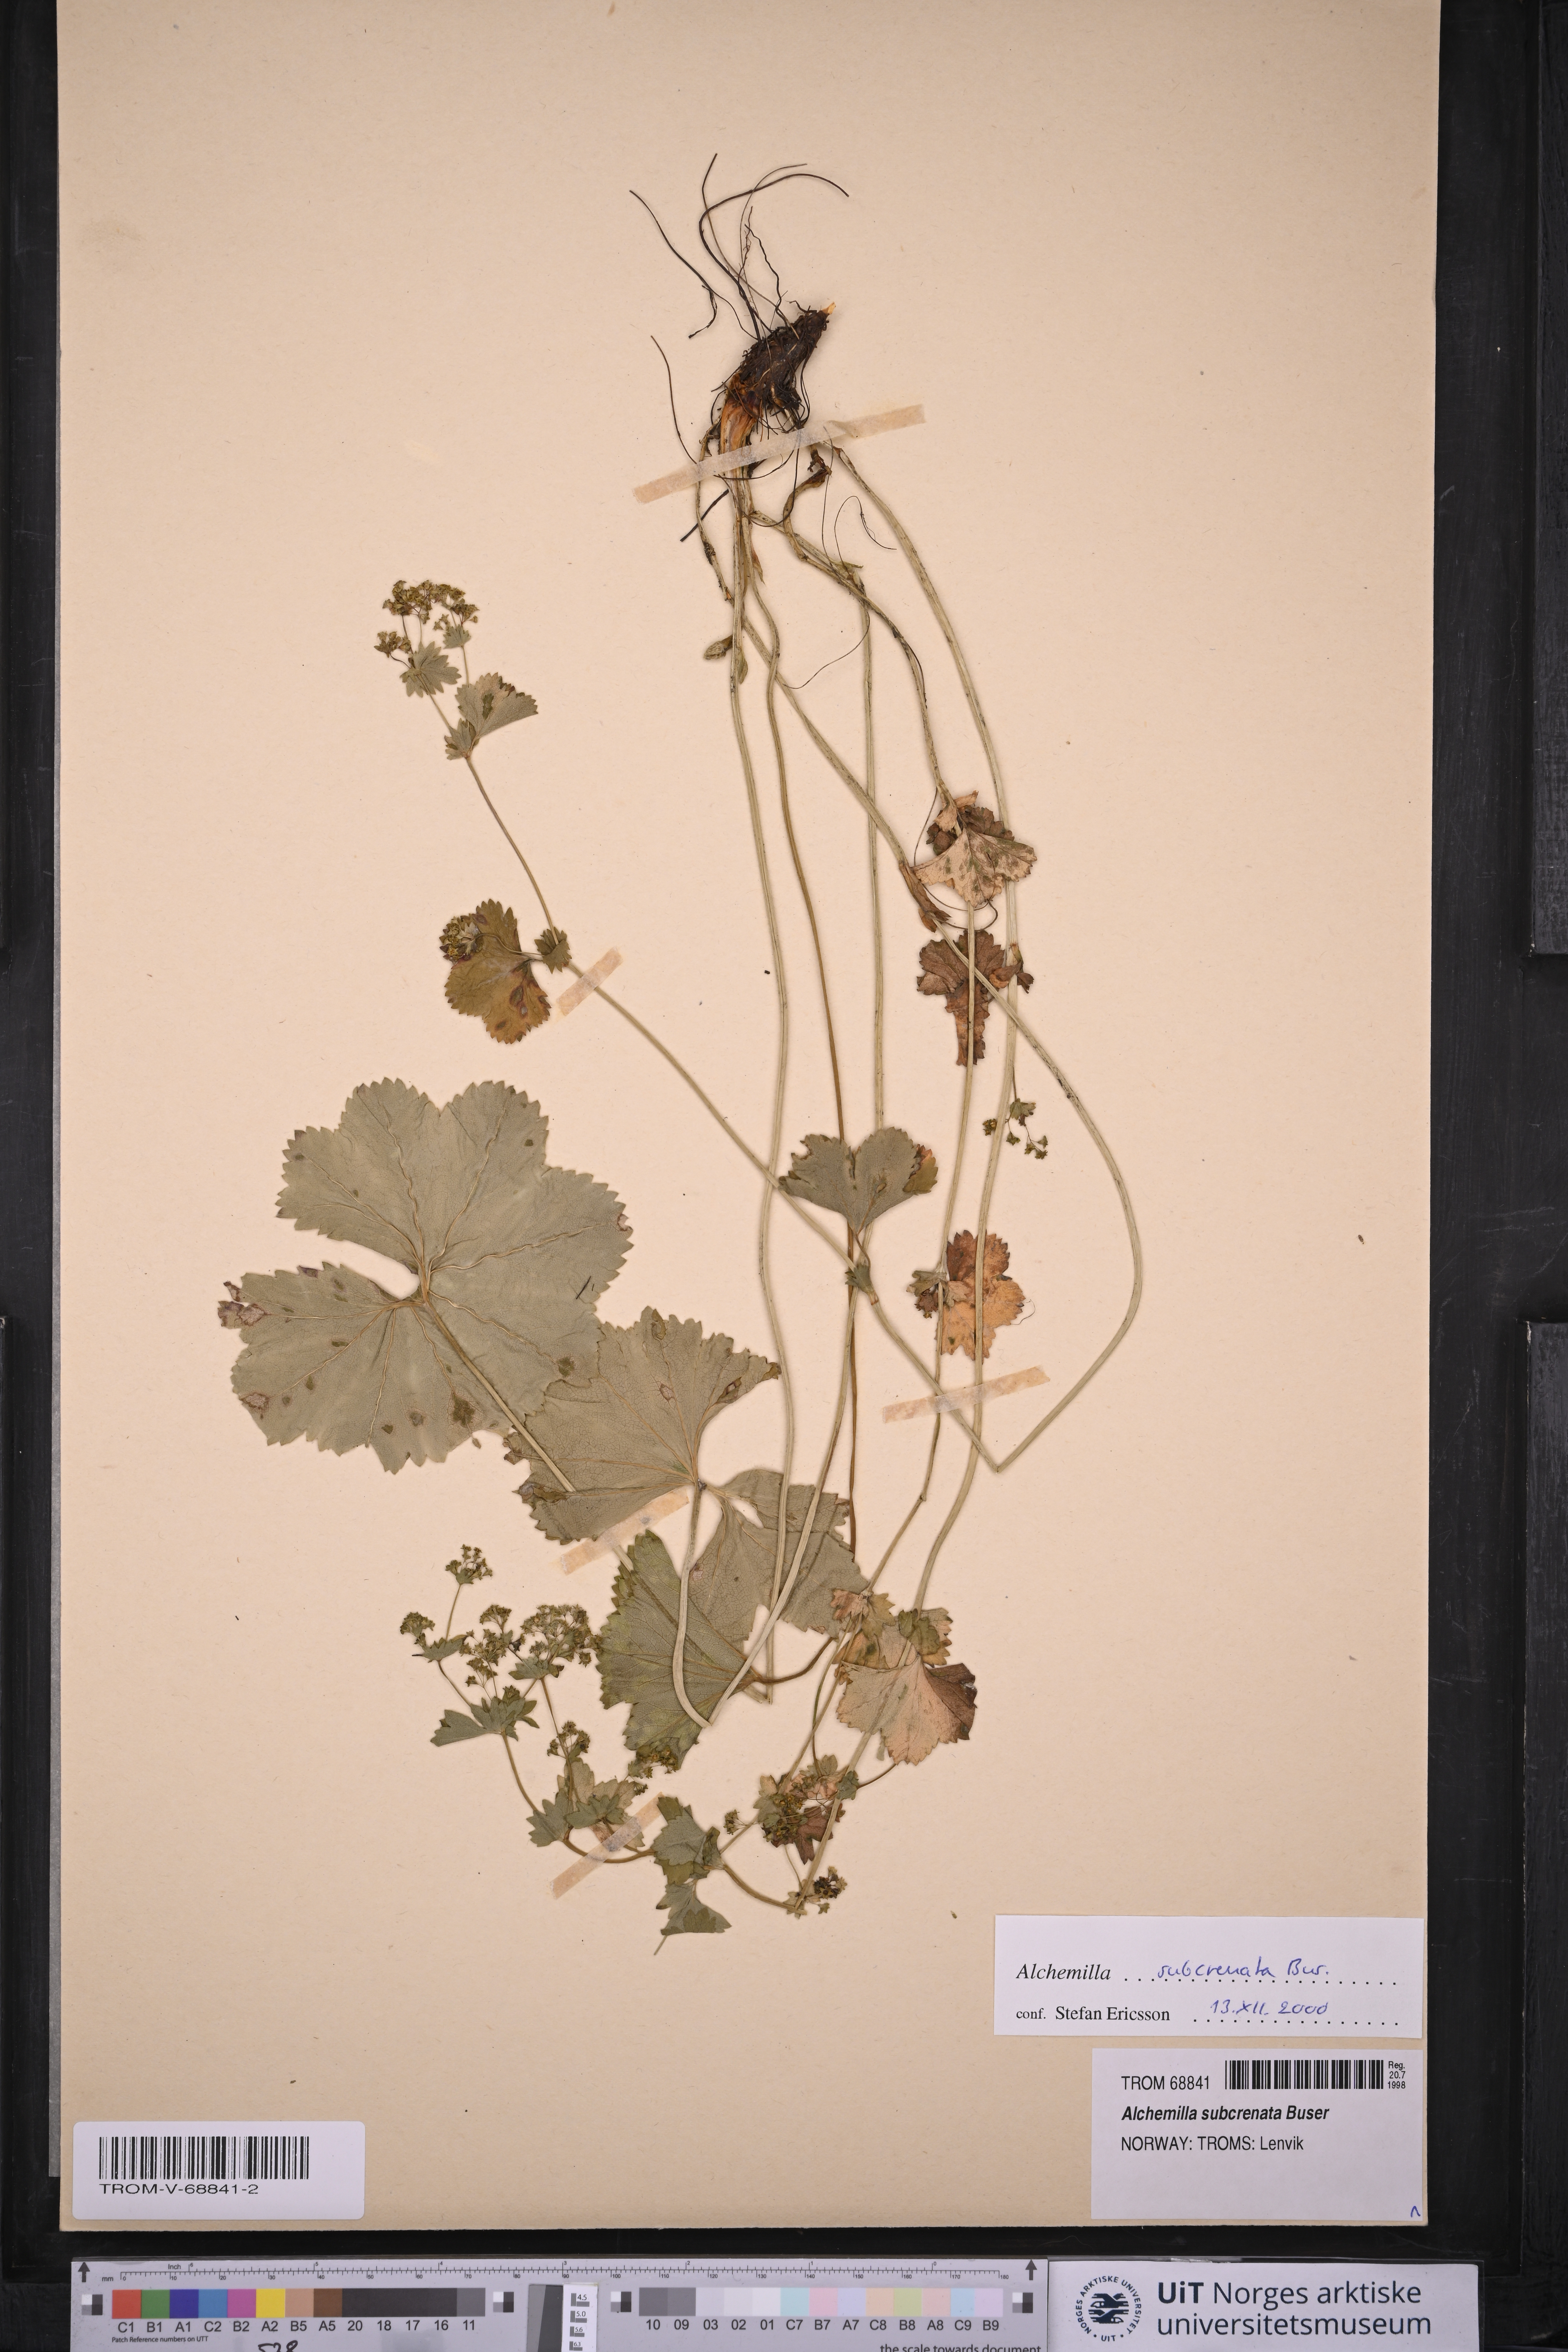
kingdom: Plantae
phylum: Tracheophyta
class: Magnoliopsida
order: Rosales
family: Rosaceae
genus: Alchemilla
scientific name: Alchemilla subcrenata
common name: Broadtooth lady's mantle
